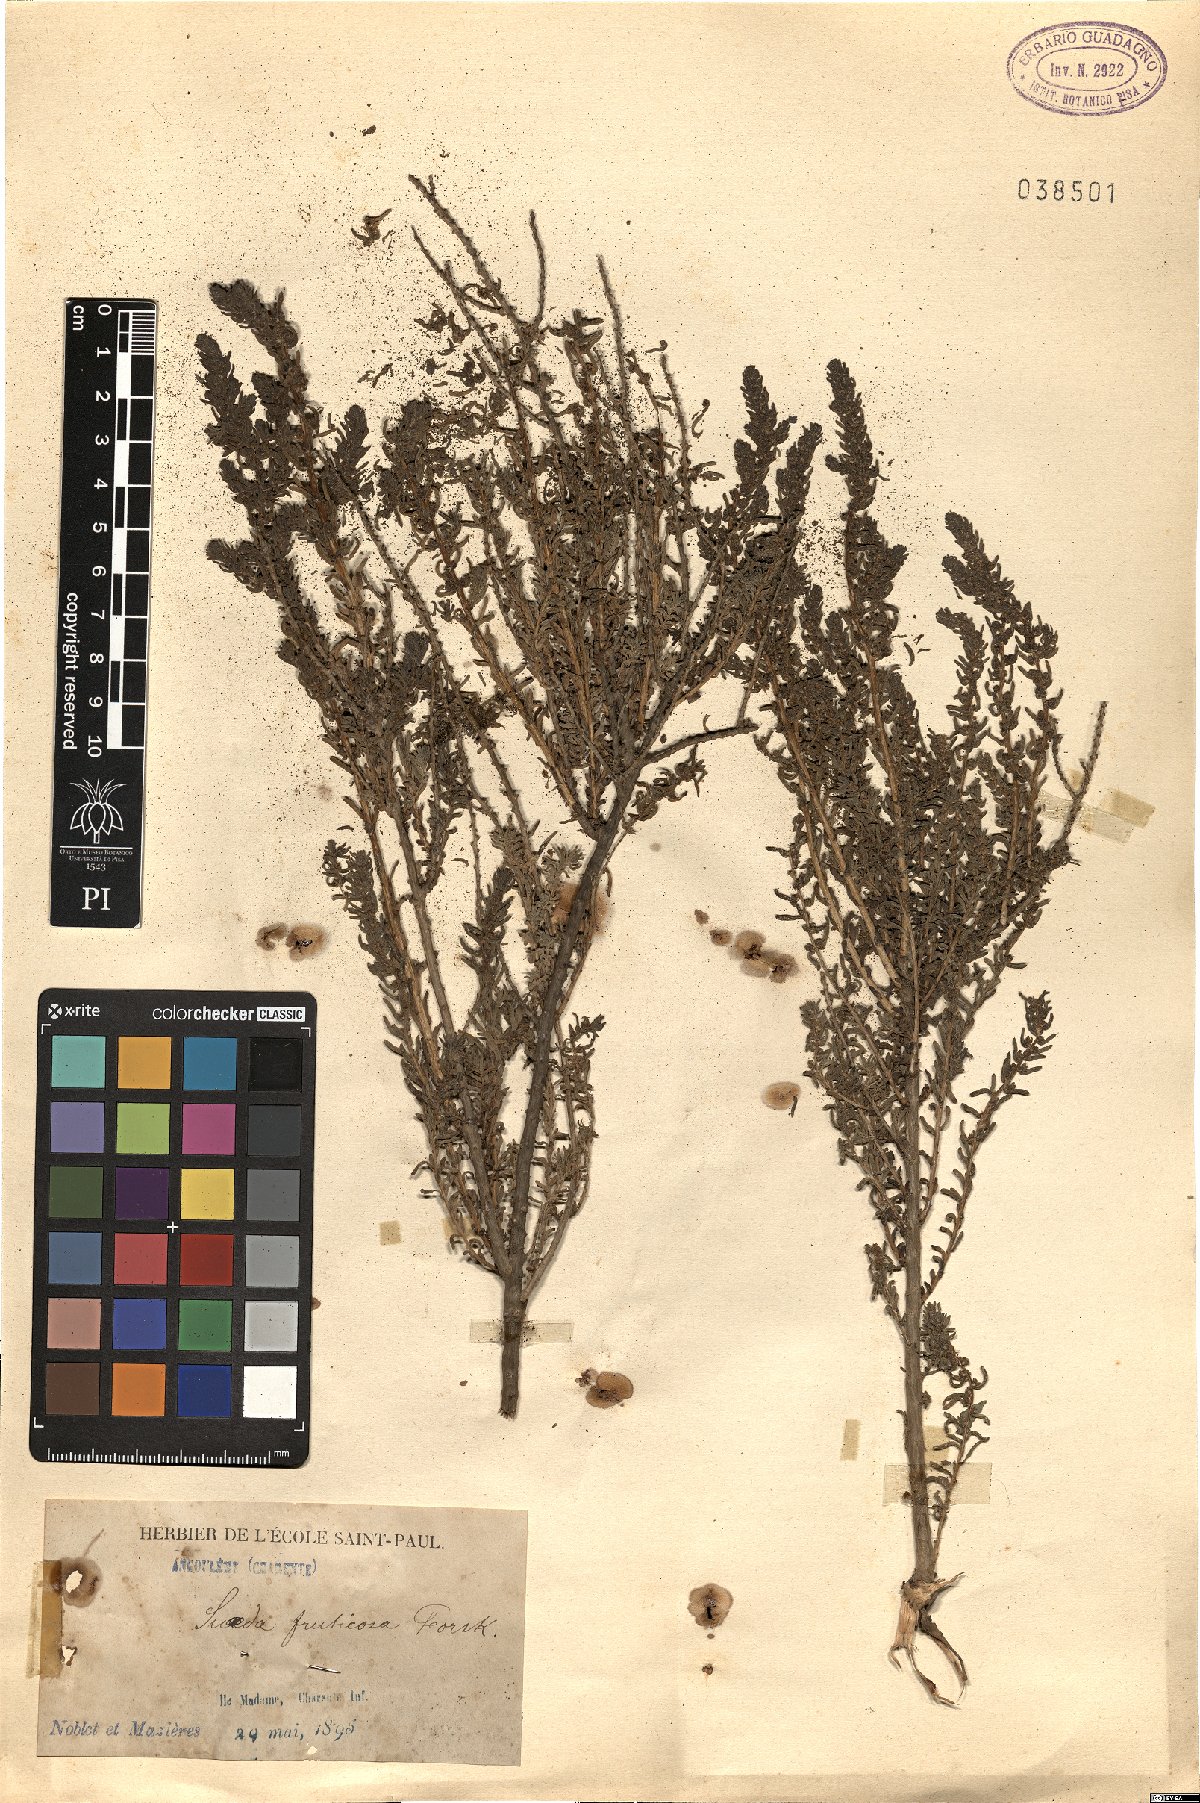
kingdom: Plantae
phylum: Tracheophyta
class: Magnoliopsida
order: Caryophyllales
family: Amaranthaceae
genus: Suaeda
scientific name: Suaeda fruticosa
